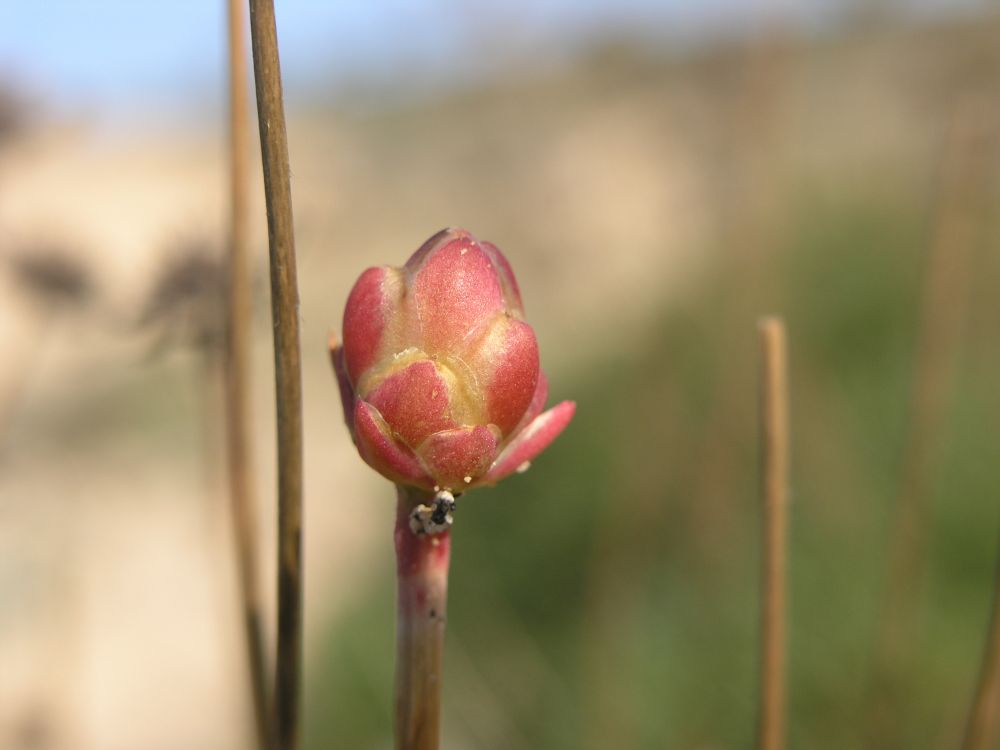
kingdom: Plantae
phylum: Tracheophyta
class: Magnoliopsida
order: Caryophyllales
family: Plumbaginaceae
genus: Armeria
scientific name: Armeria pungens
